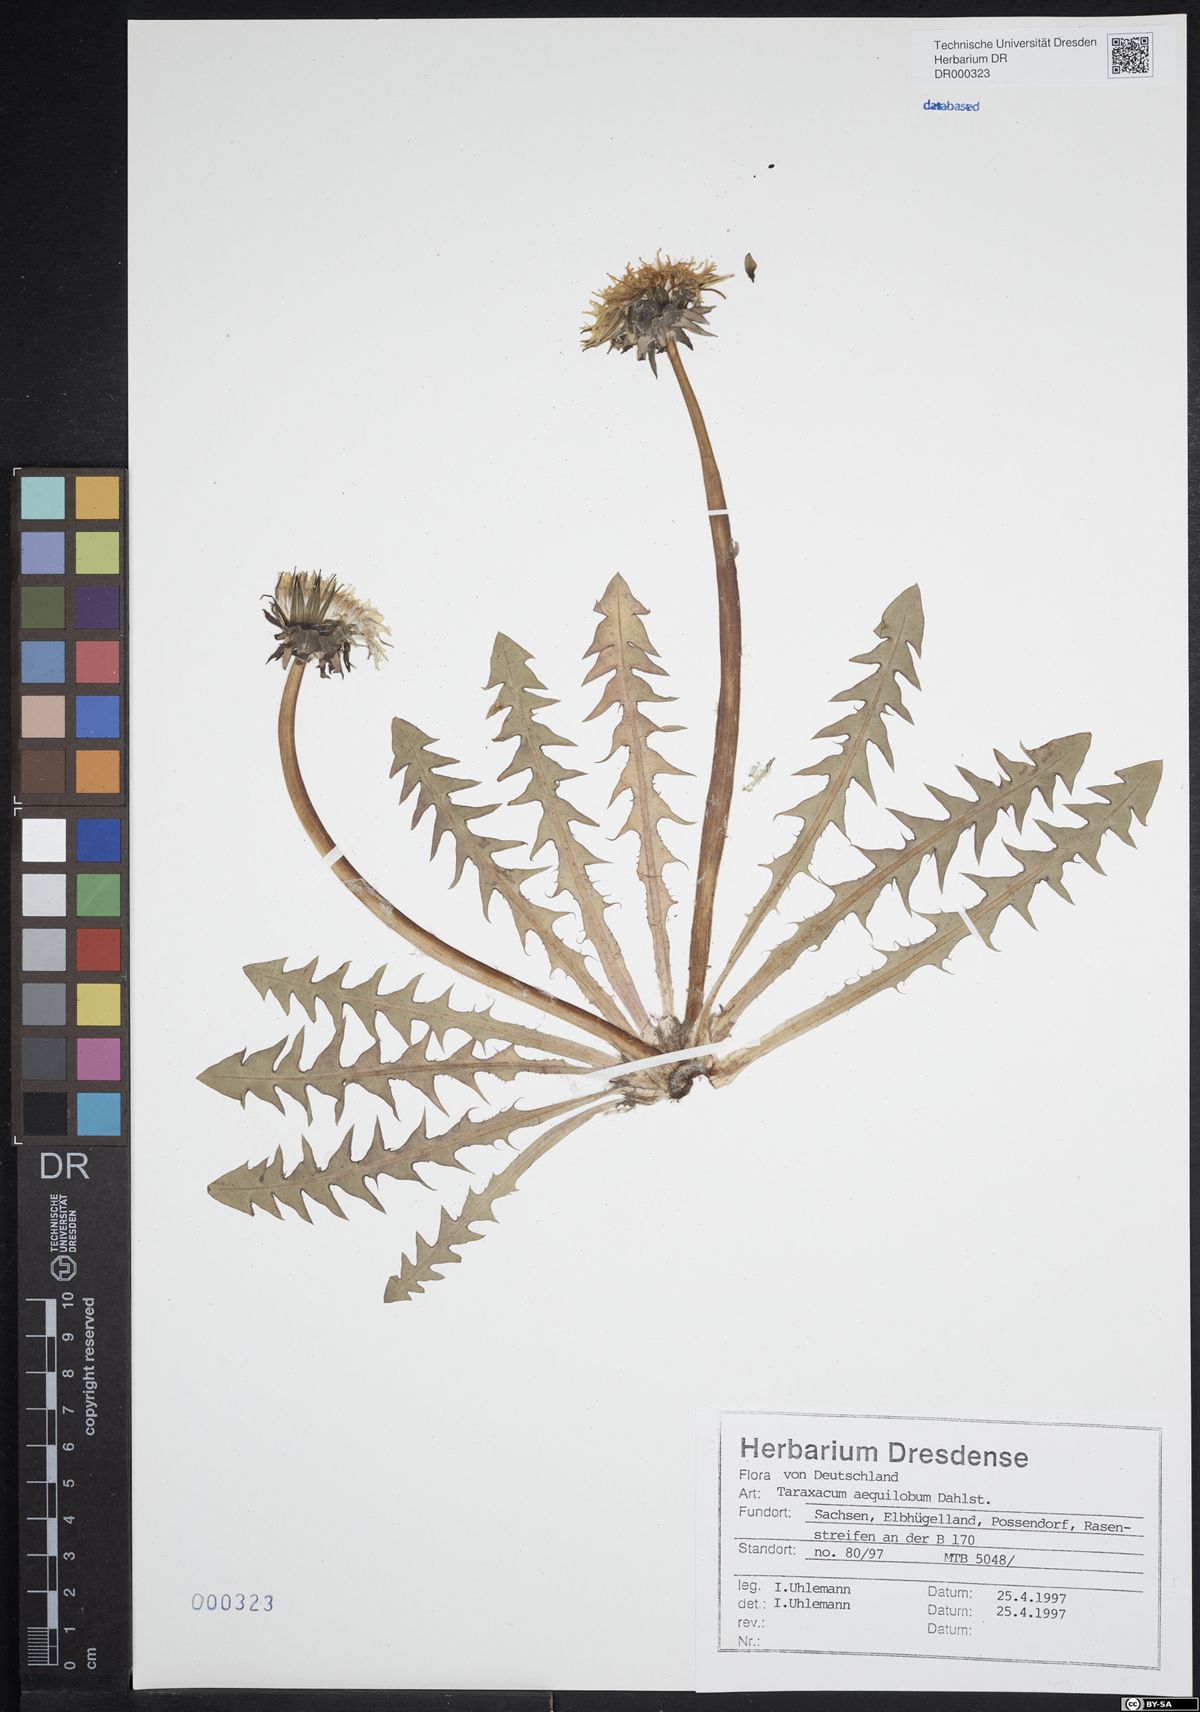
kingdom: Plantae
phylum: Tracheophyta
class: Magnoliopsida
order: Asterales
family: Asteraceae
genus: Taraxacum
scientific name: Taraxacum aequilobum
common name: Twisted-bracted dandelion
